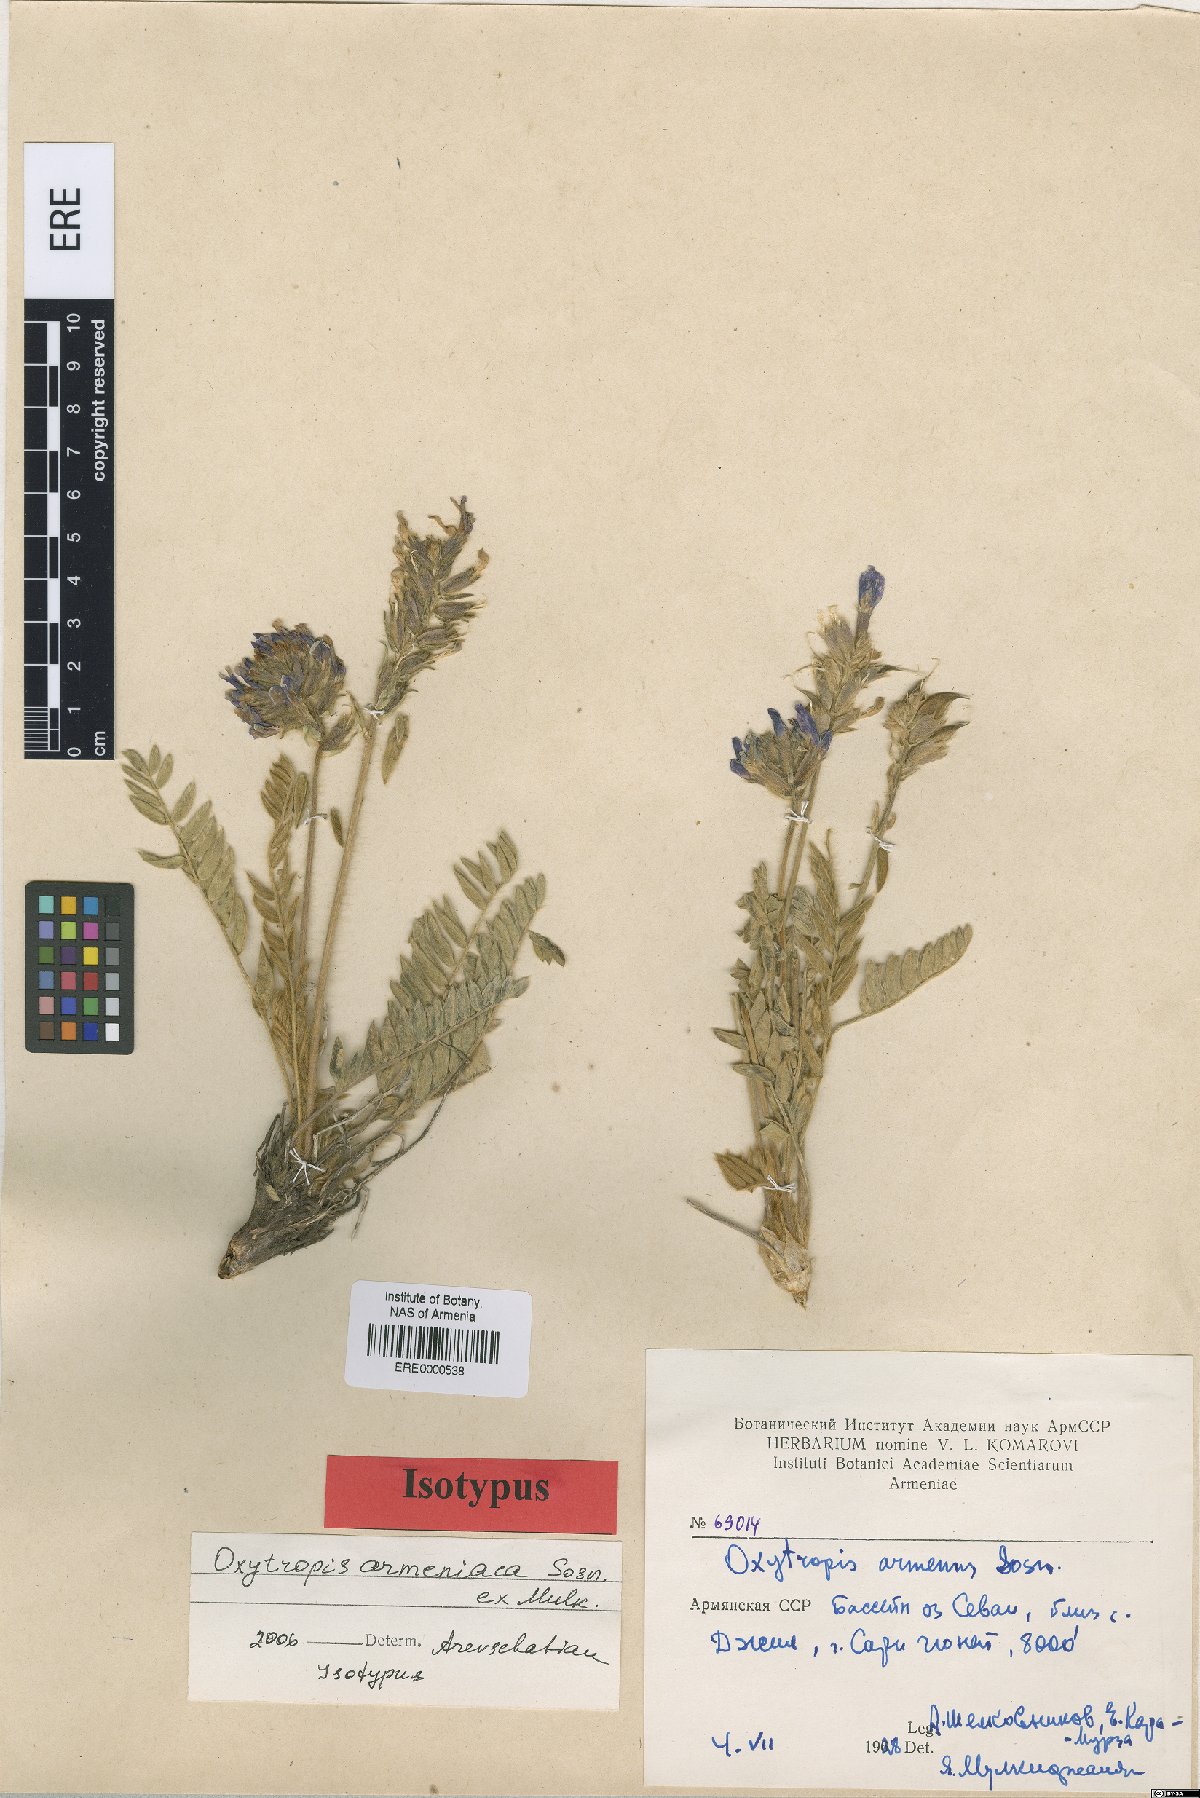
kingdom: Plantae
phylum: Tracheophyta
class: Magnoliopsida
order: Fabales
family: Fabaceae
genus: Oxytropis
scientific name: Oxytropis armeniaca
